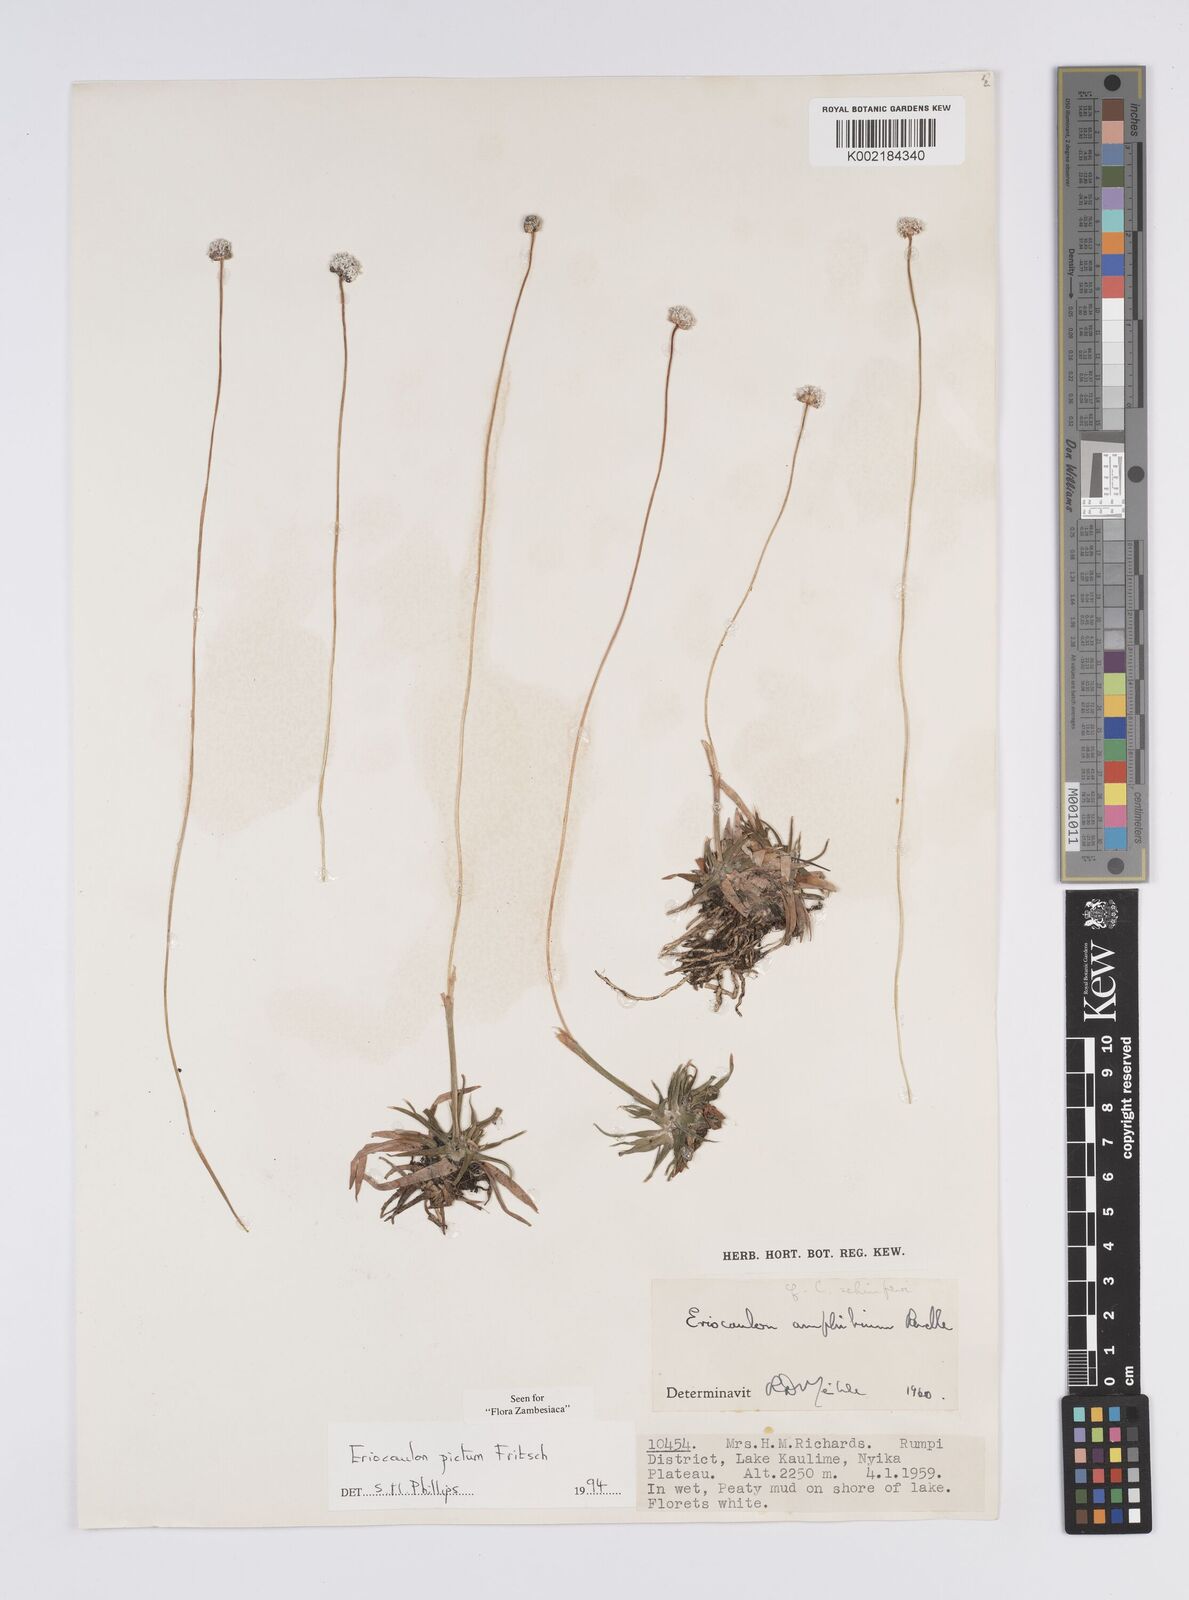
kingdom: Plantae
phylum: Tracheophyta
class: Liliopsida
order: Poales
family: Eriocaulaceae
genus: Eriocaulon
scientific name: Eriocaulon pictum
